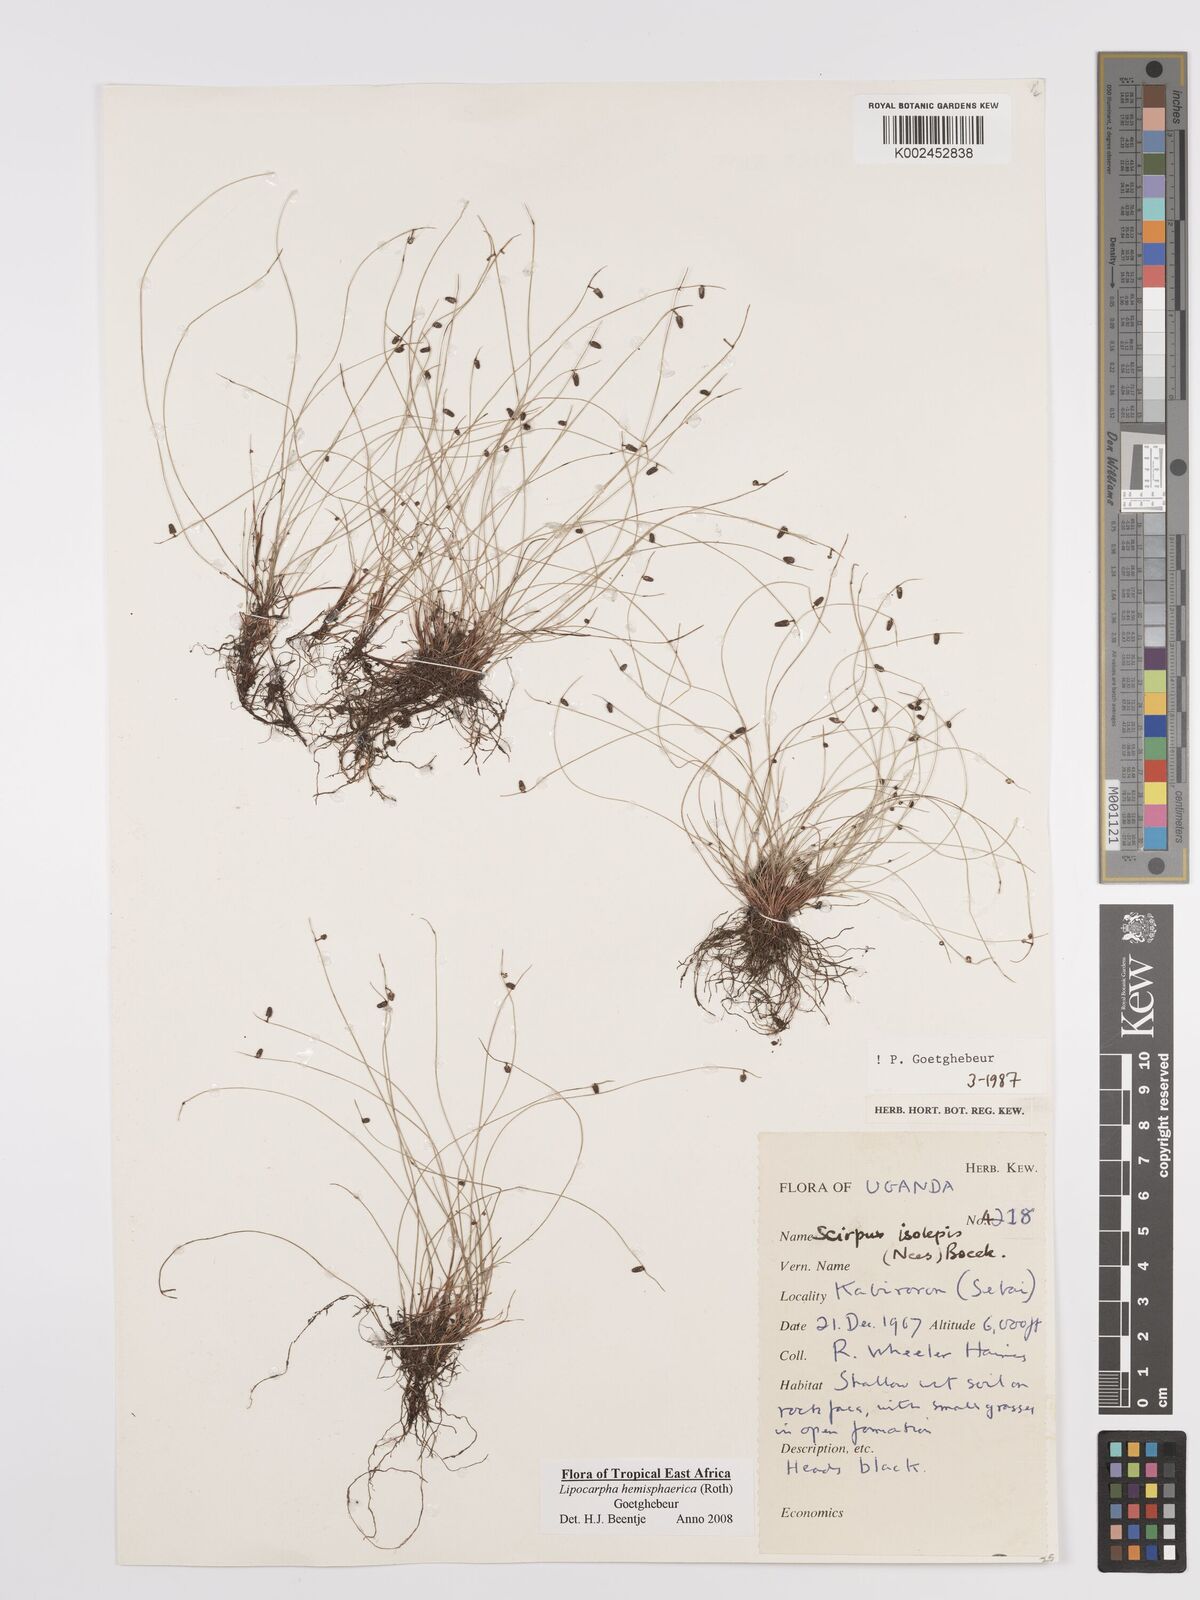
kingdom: Plantae
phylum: Tracheophyta
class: Liliopsida
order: Poales
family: Cyperaceae
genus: Cyperus
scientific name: Cyperus
